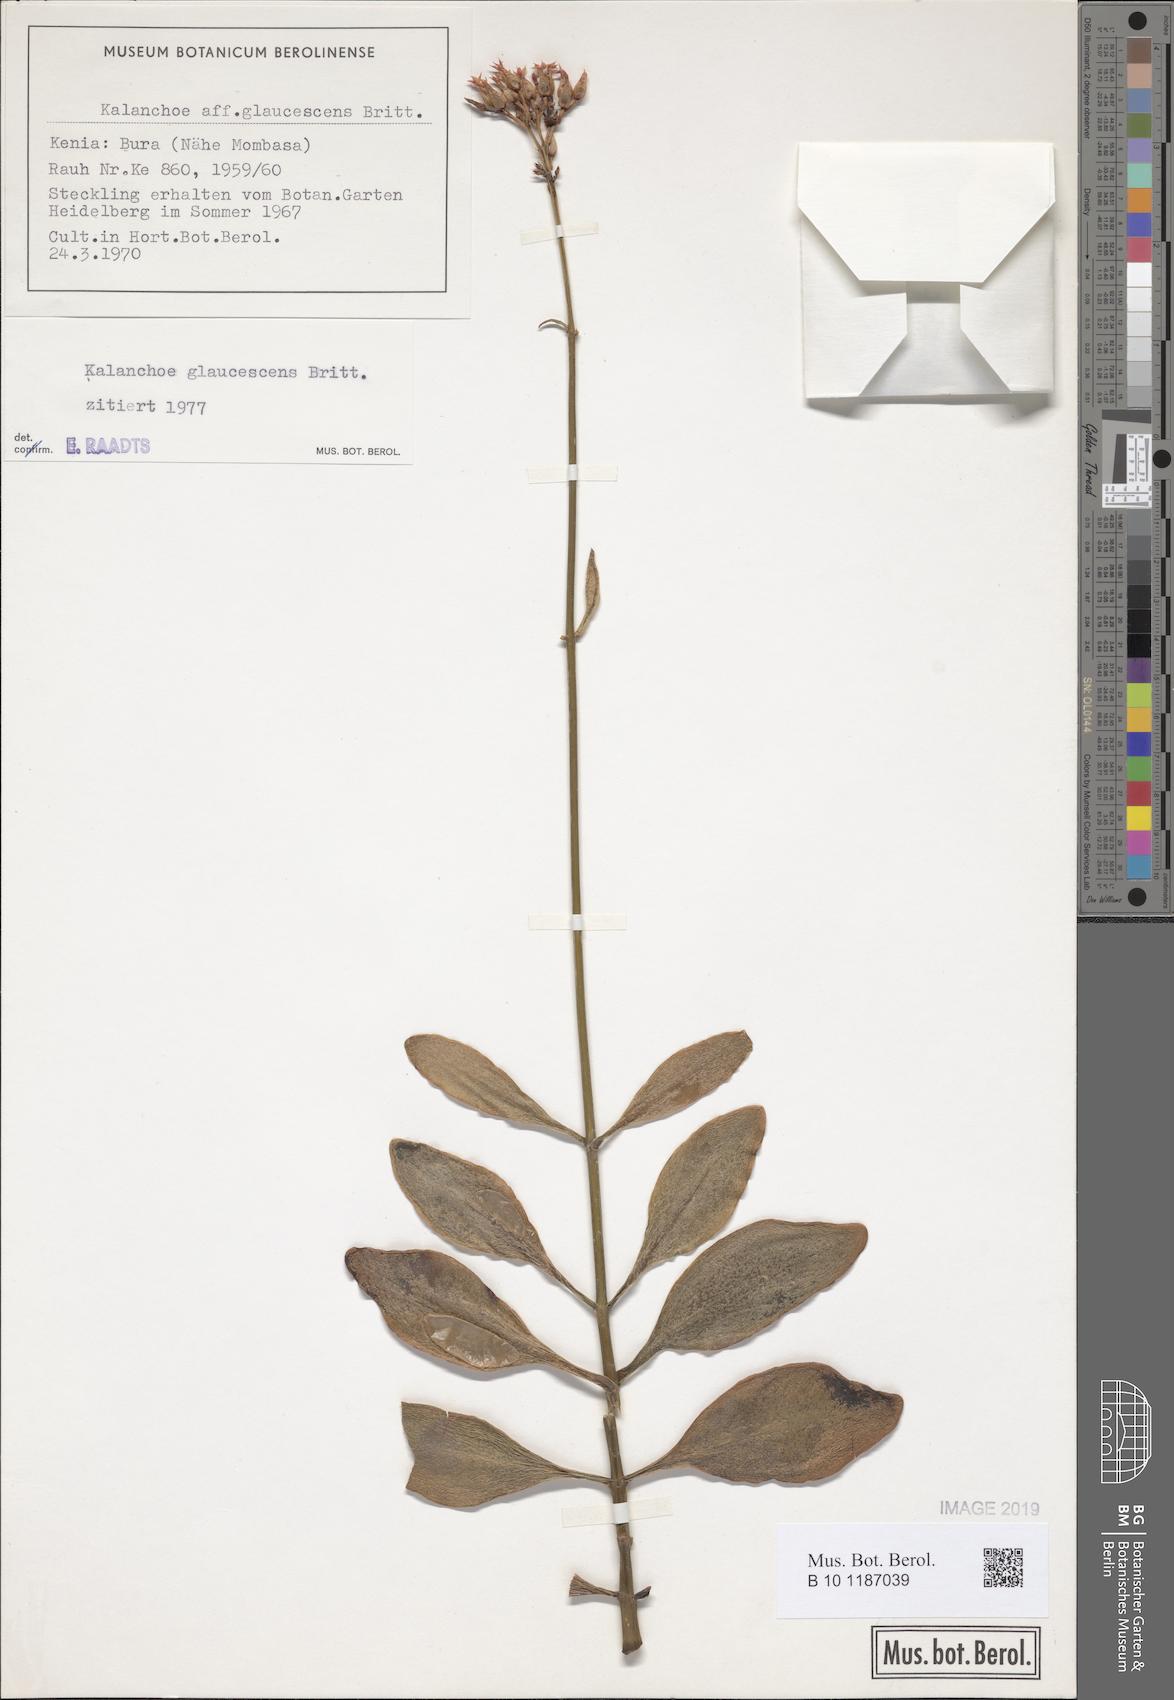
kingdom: Plantae
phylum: Tracheophyta
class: Magnoliopsida
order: Saxifragales
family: Crassulaceae
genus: Kalanchoe
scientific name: Kalanchoe glaucescens
